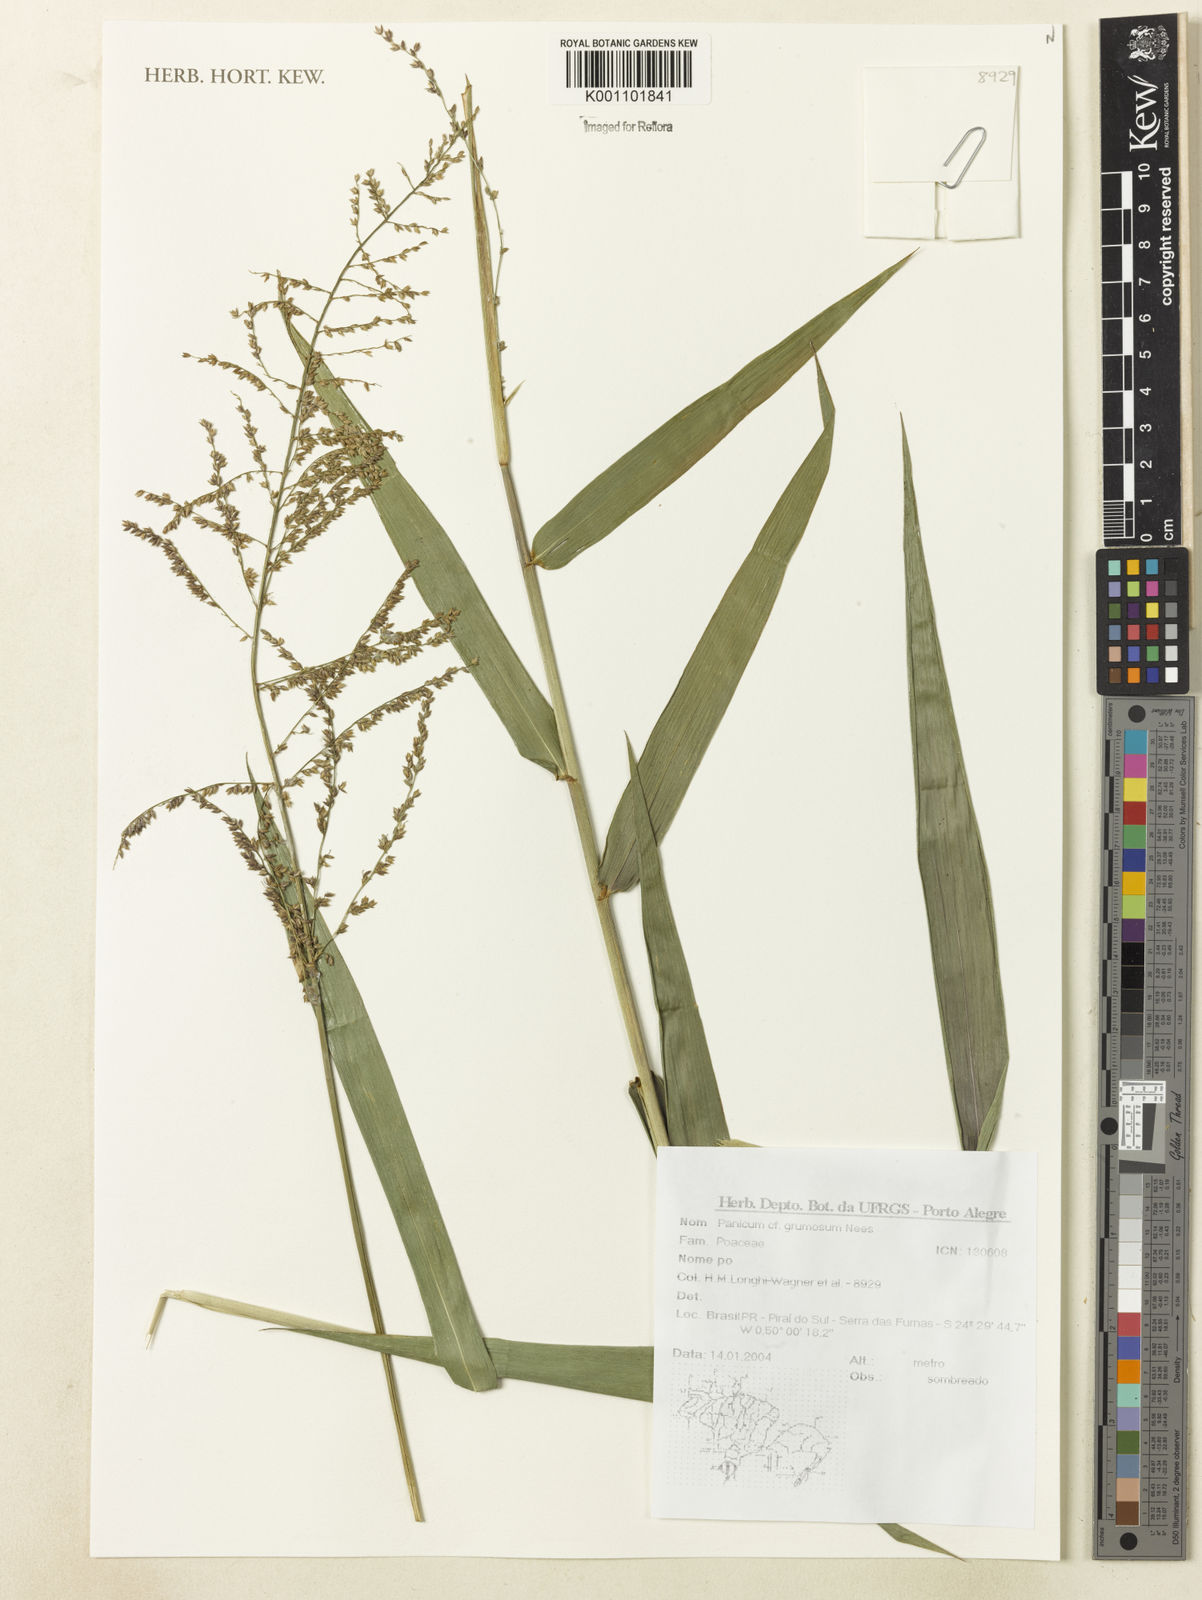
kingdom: Plantae
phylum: Tracheophyta
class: Liliopsida
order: Poales
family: Poaceae
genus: Hymenachne
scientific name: Hymenachne grumosa
